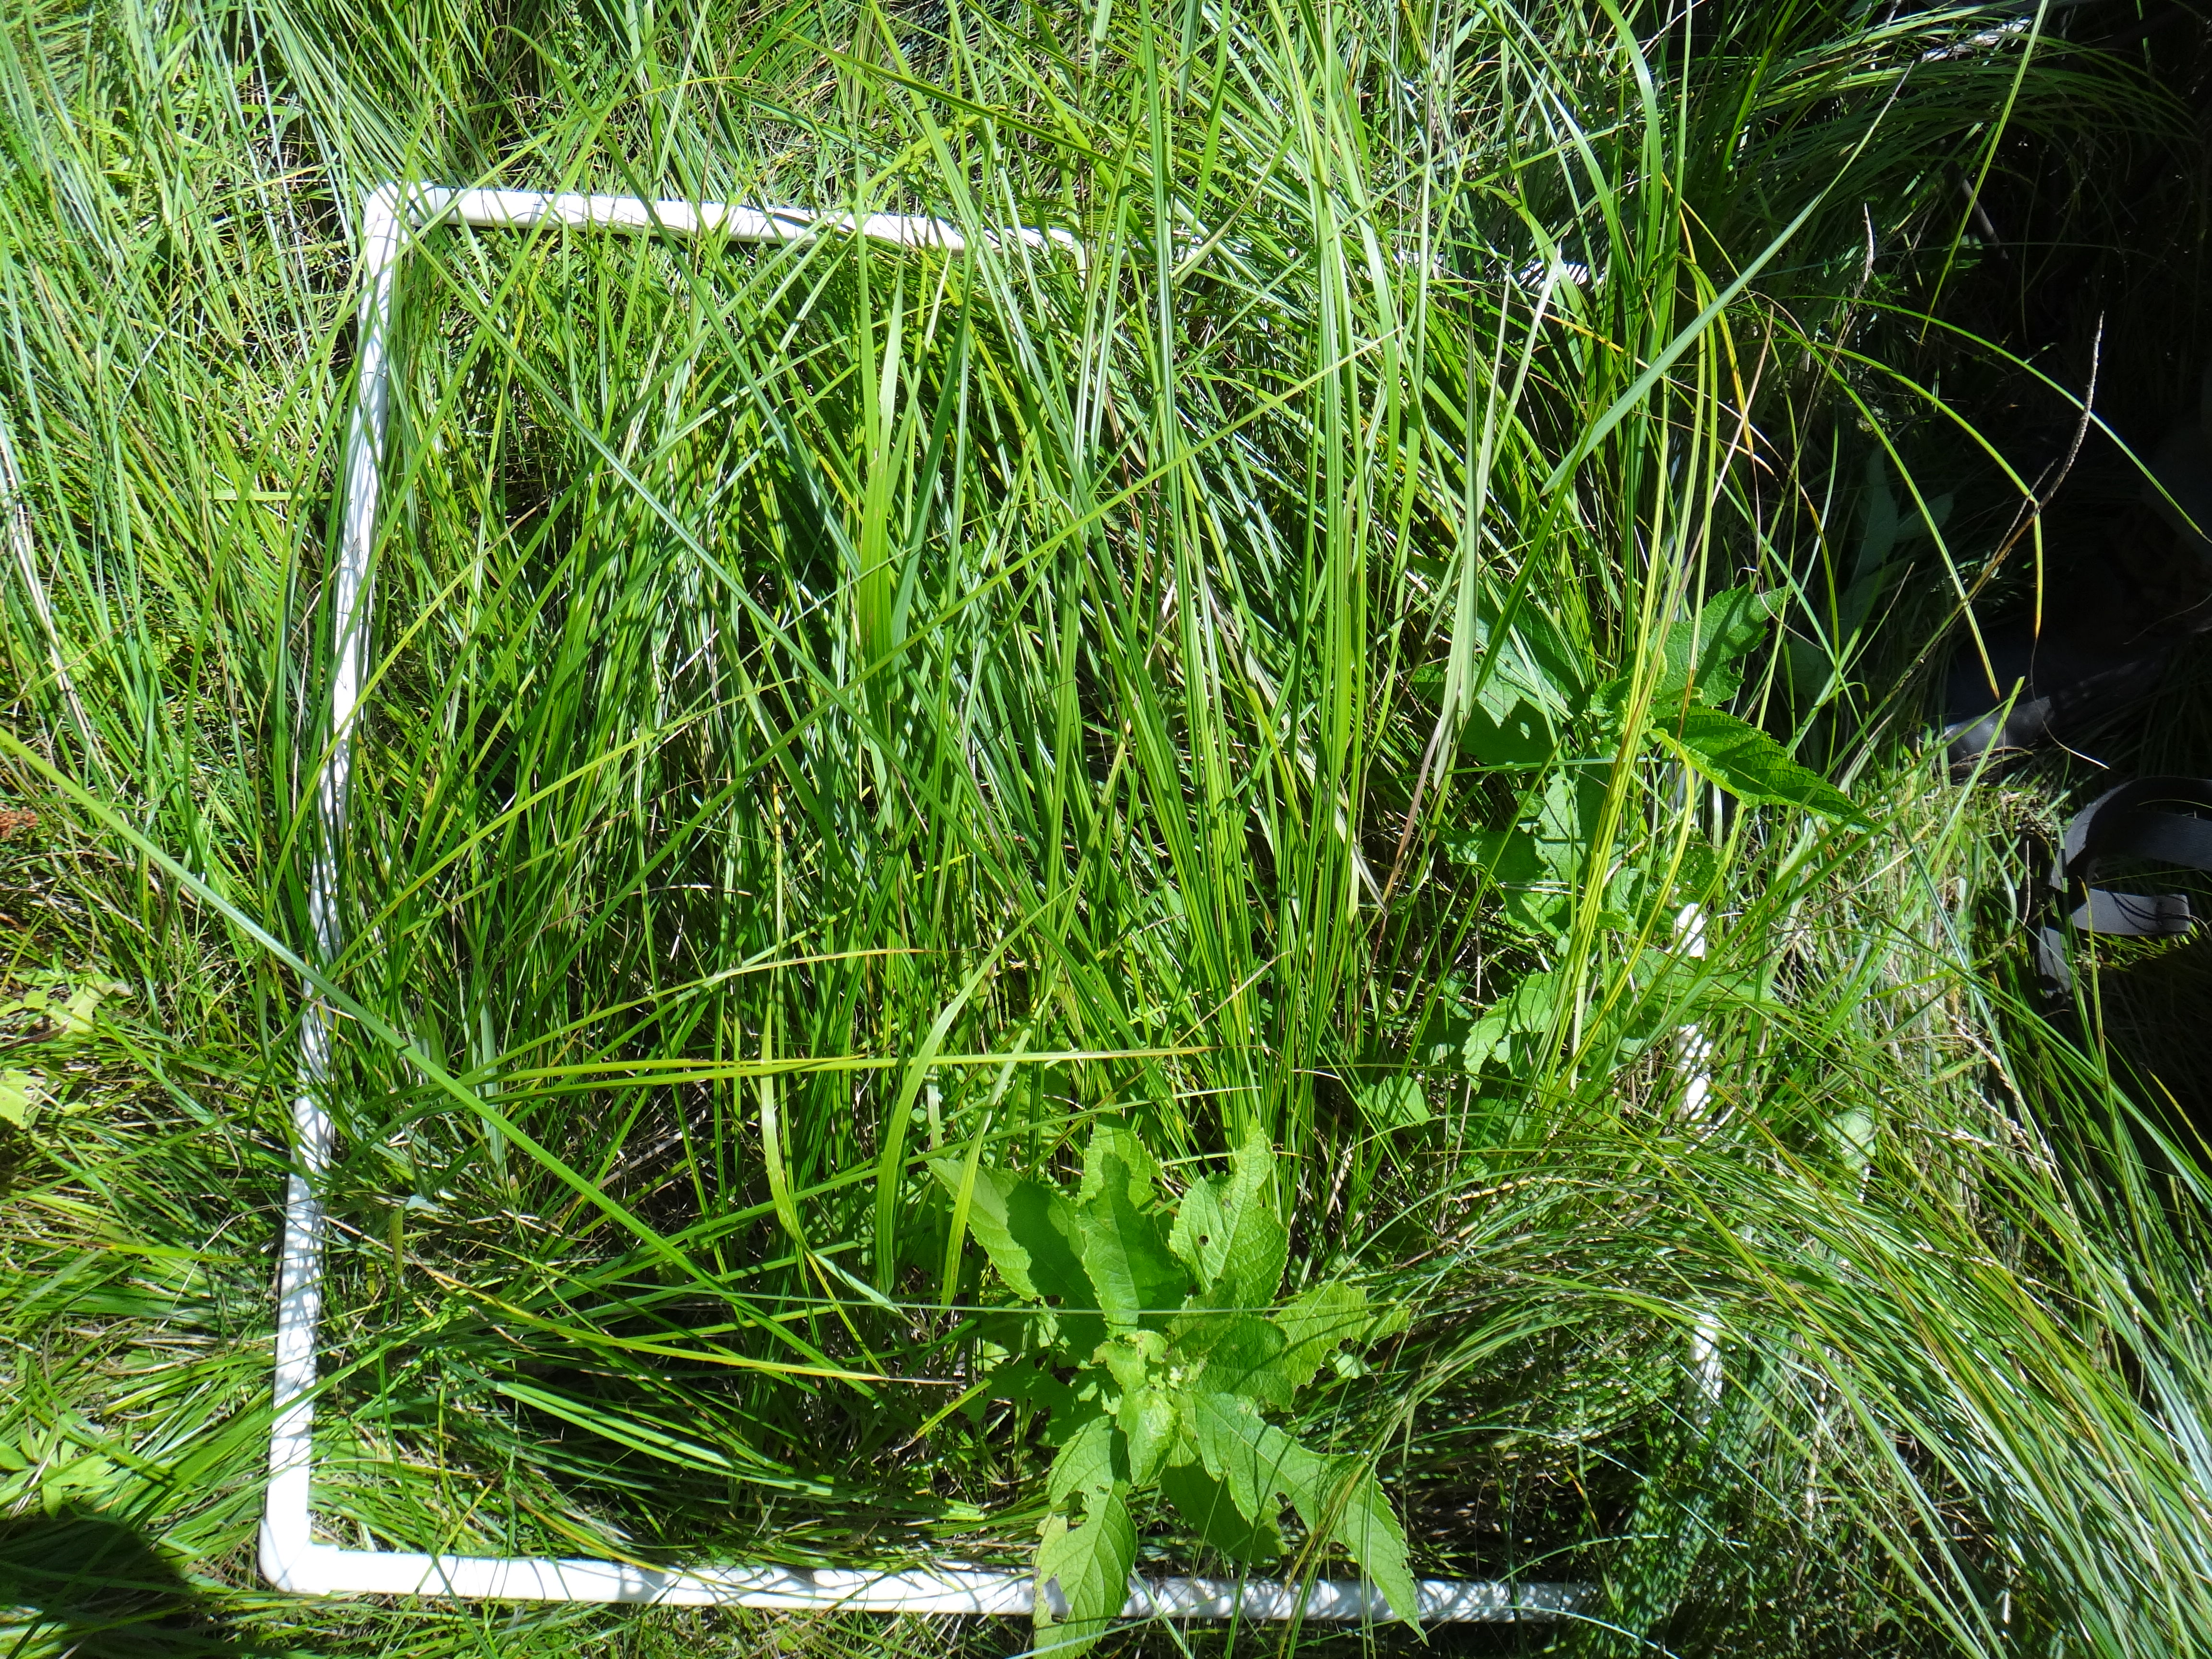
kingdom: Plantae
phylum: Tracheophyta
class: Magnoliopsida
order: Rosales
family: Rosaceae
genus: Rubus
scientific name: Rubus pubescens
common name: Dwarf raspberry
